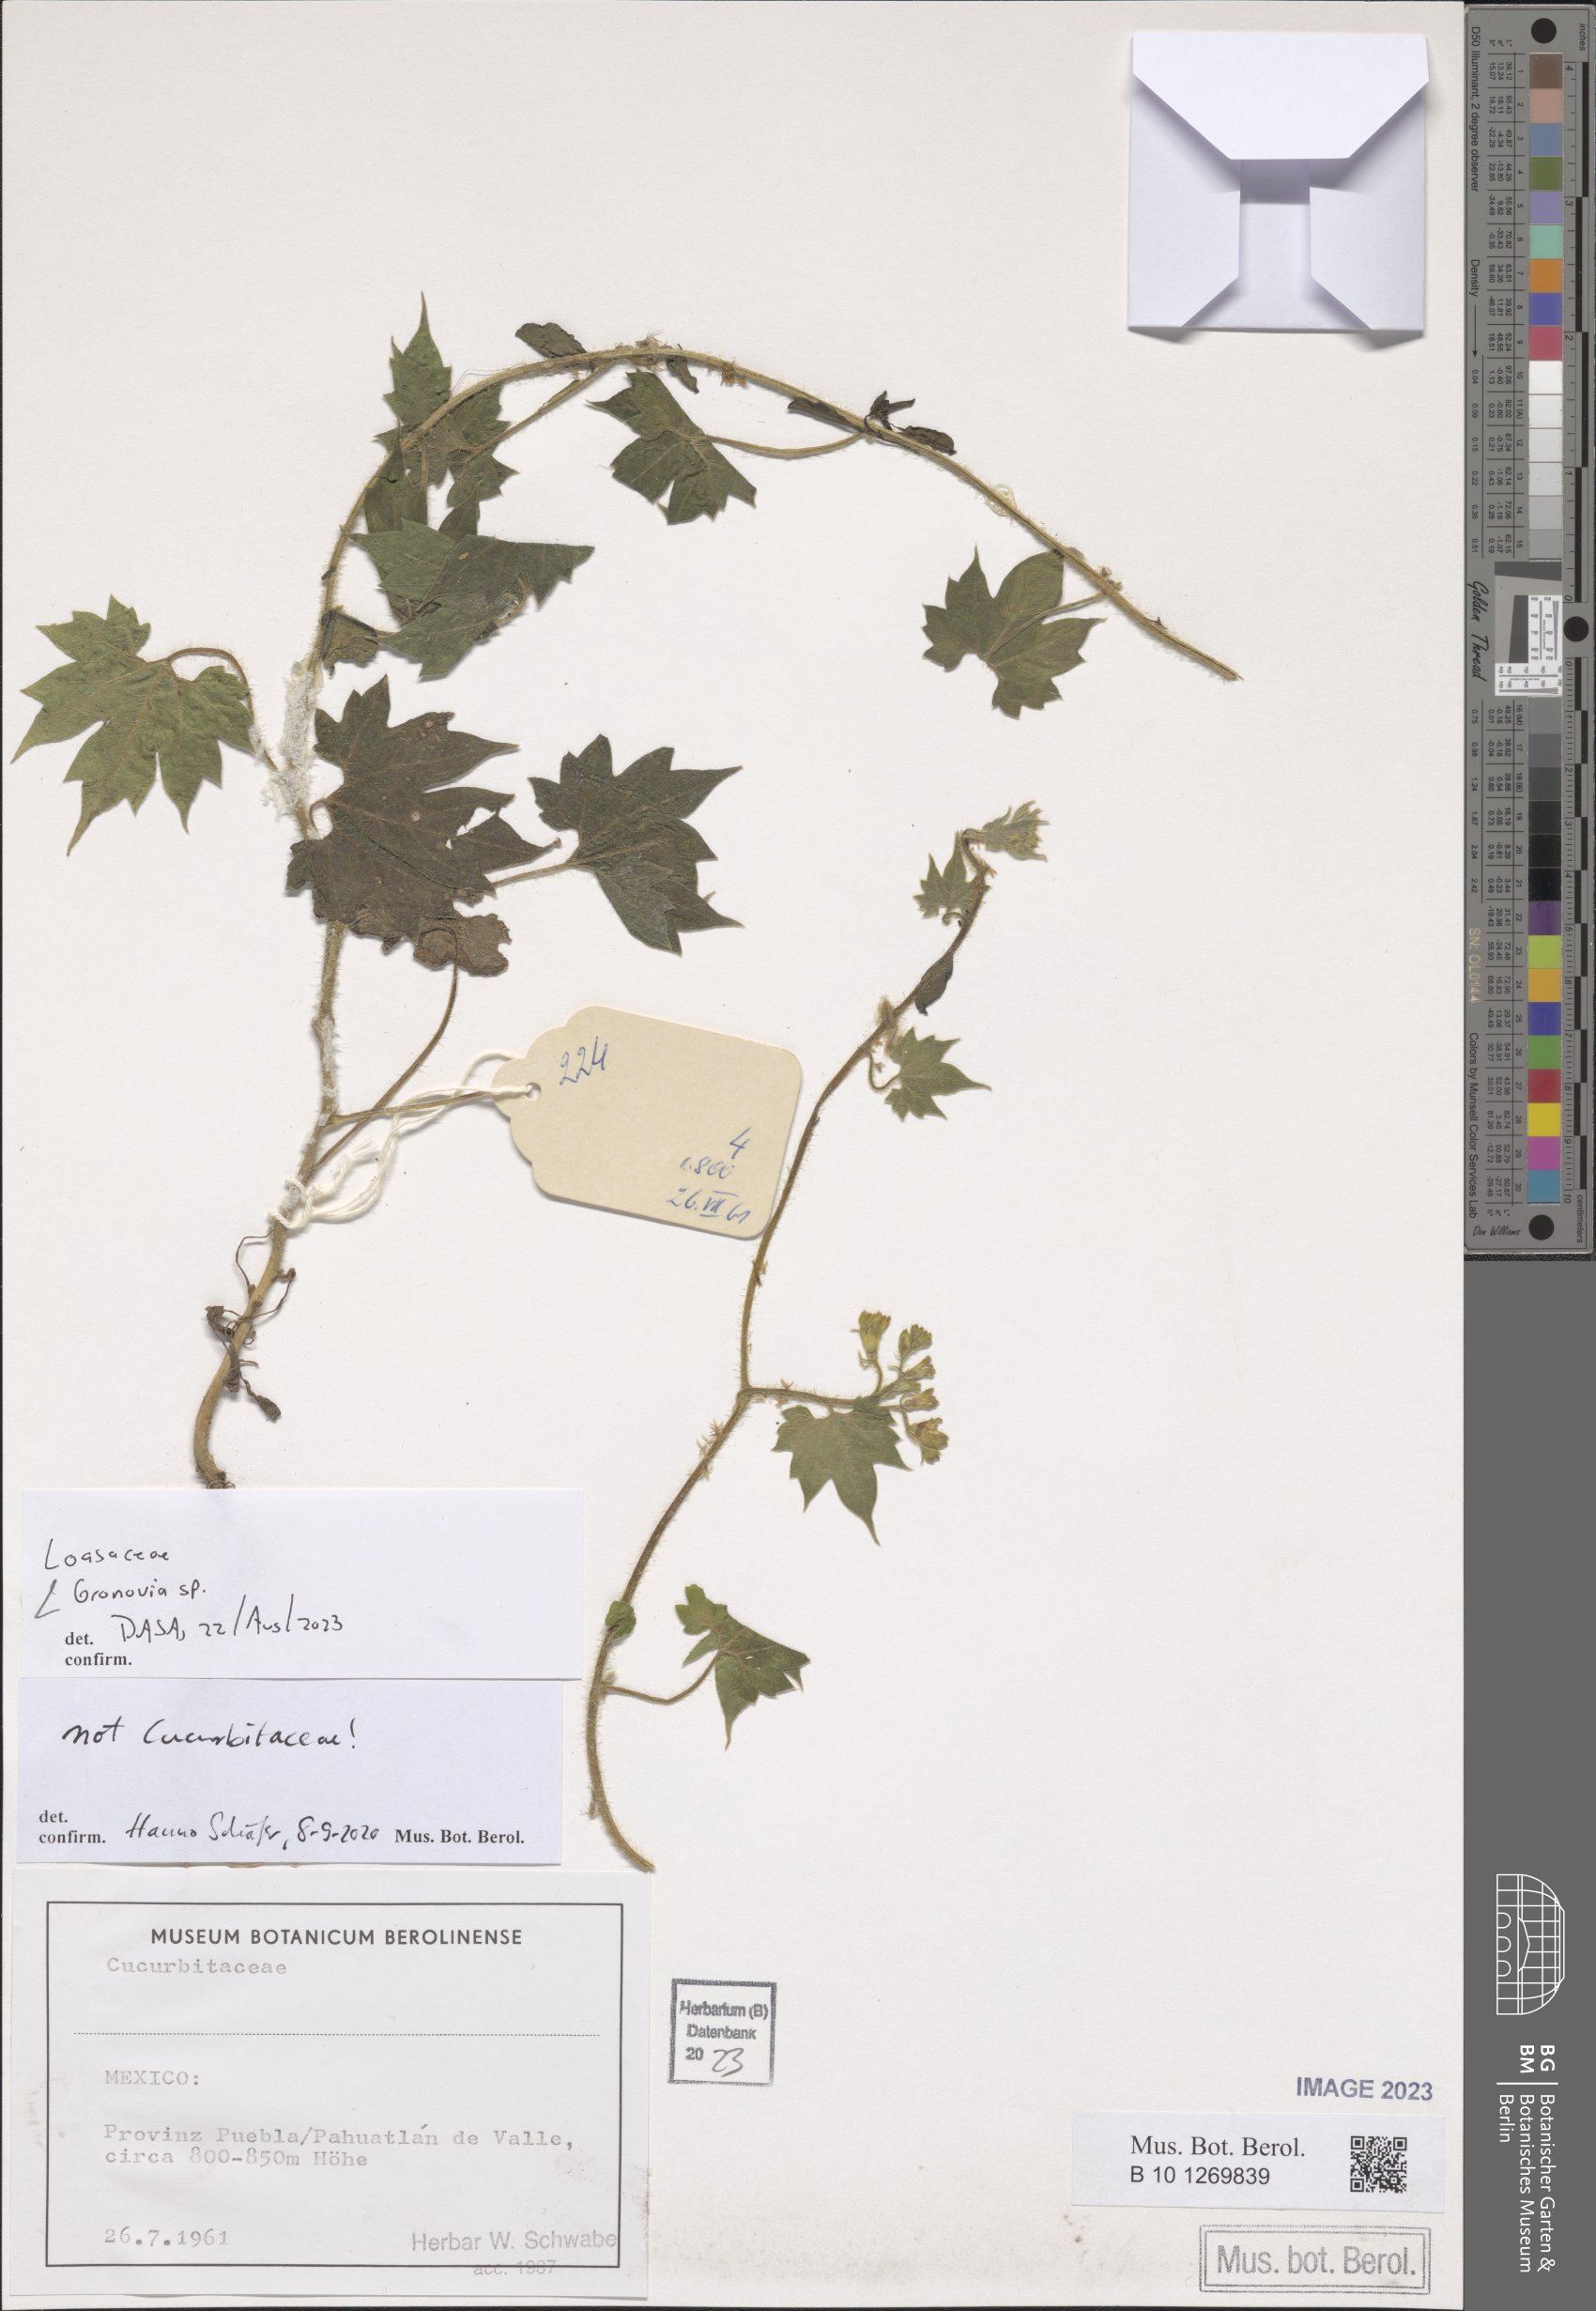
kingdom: Plantae
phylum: Tracheophyta
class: Magnoliopsida
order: Cornales
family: Loasaceae
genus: Gronovia
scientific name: Gronovia
